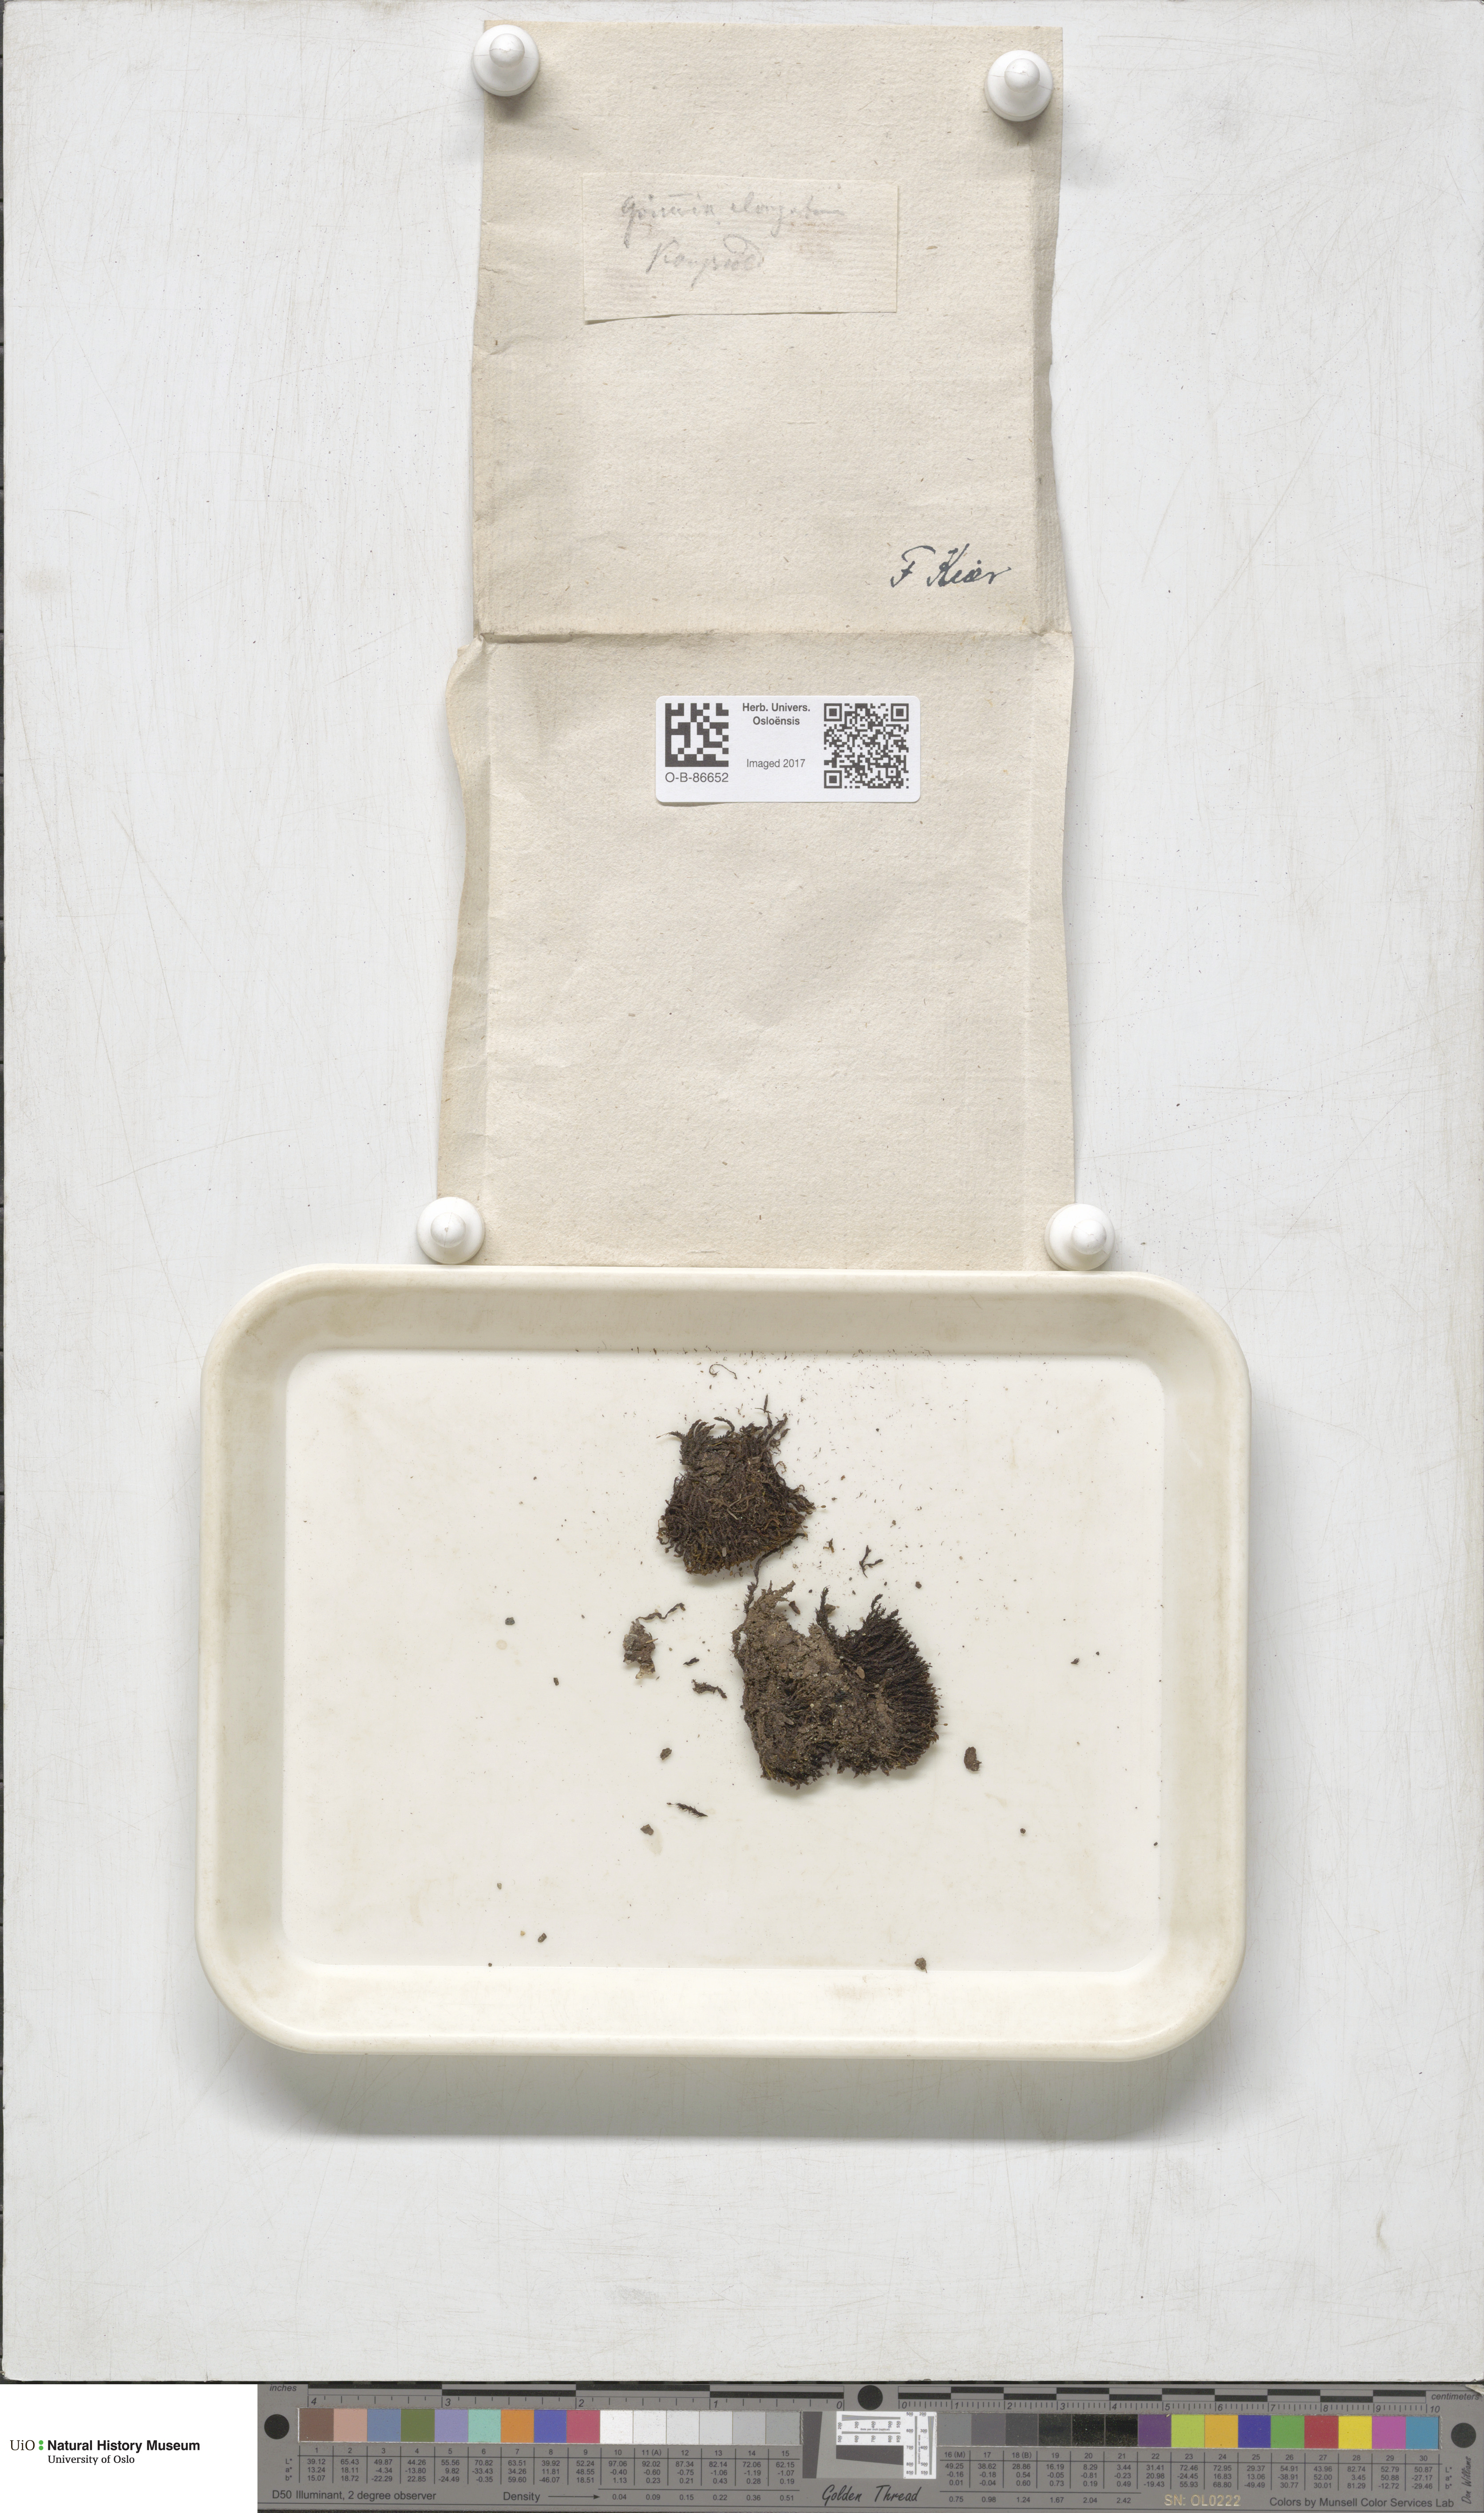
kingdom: Plantae
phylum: Bryophyta
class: Bryopsida
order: Grimmiales
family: Grimmiaceae
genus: Grimmia
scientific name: Grimmia elongata
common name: Brown grimmia
